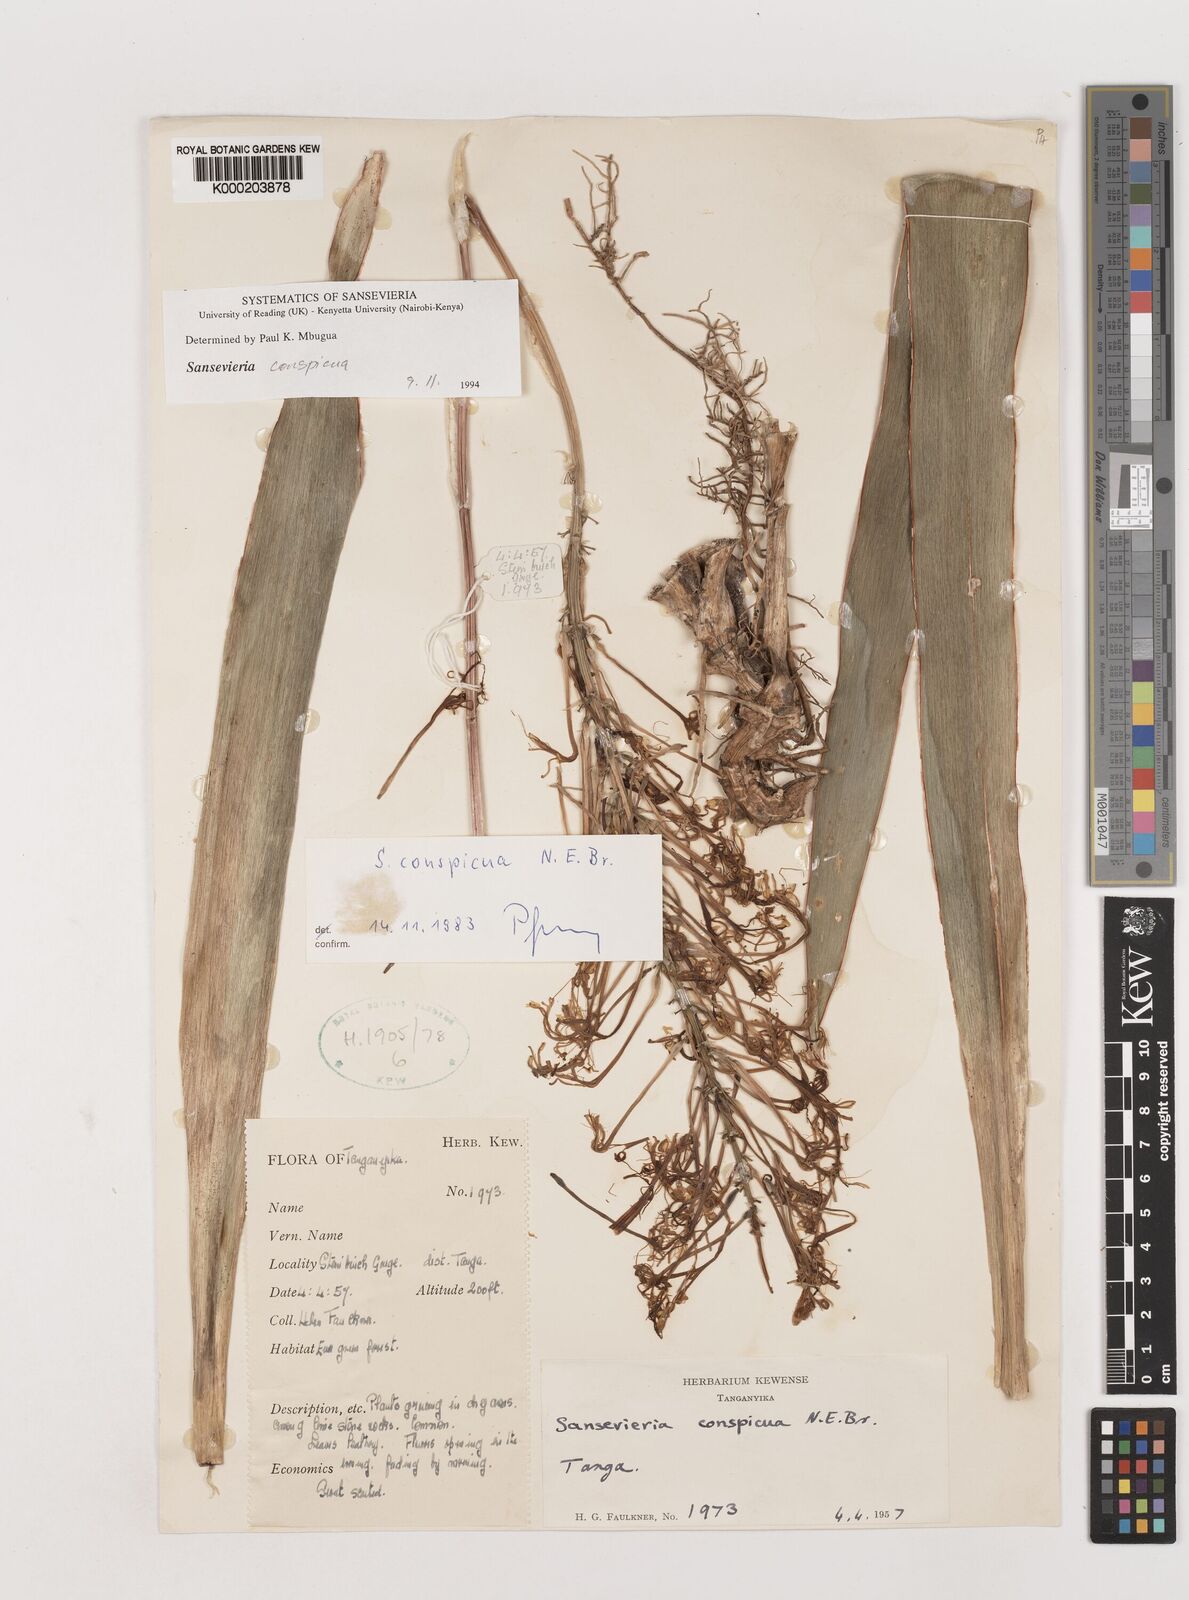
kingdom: Plantae
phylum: Tracheophyta
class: Liliopsida
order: Asparagales
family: Asparagaceae
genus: Dracaena
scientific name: Dracaena conspicua
